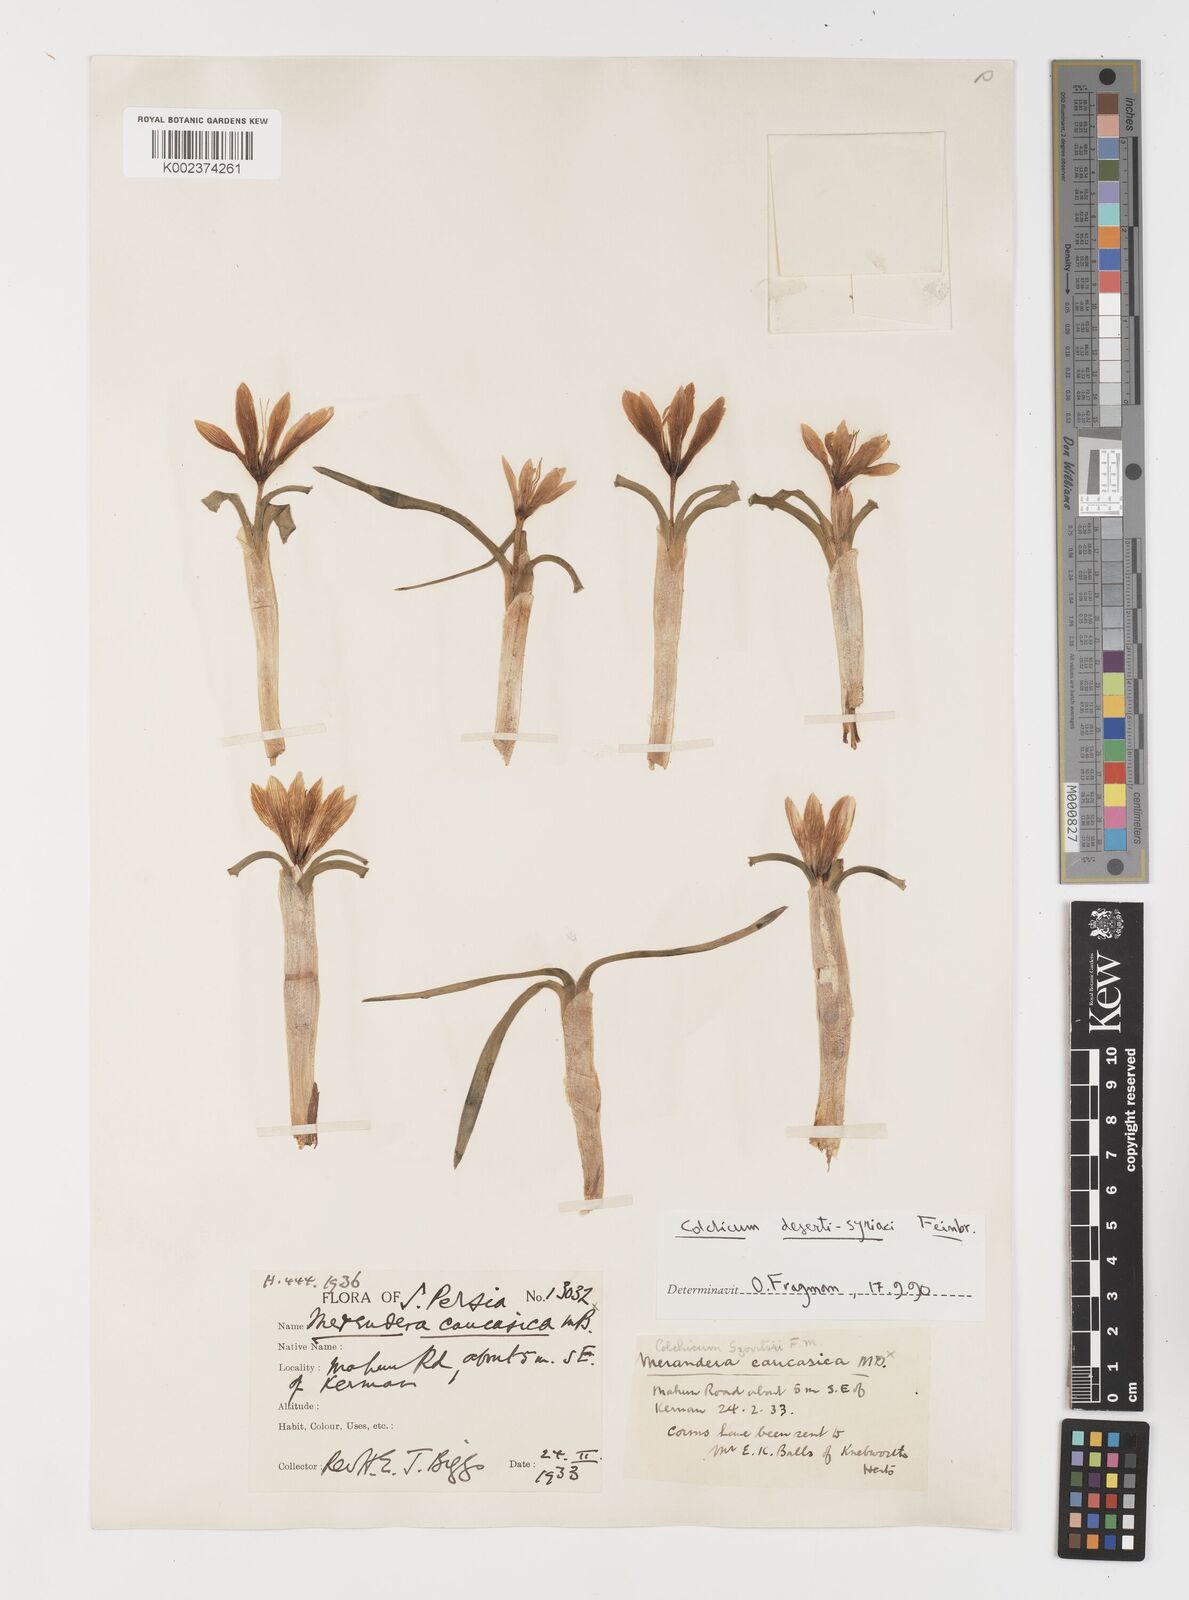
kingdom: Plantae
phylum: Tracheophyta
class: Liliopsida
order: Liliales
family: Colchicaceae
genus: Colchicum
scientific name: Colchicum schimperi
